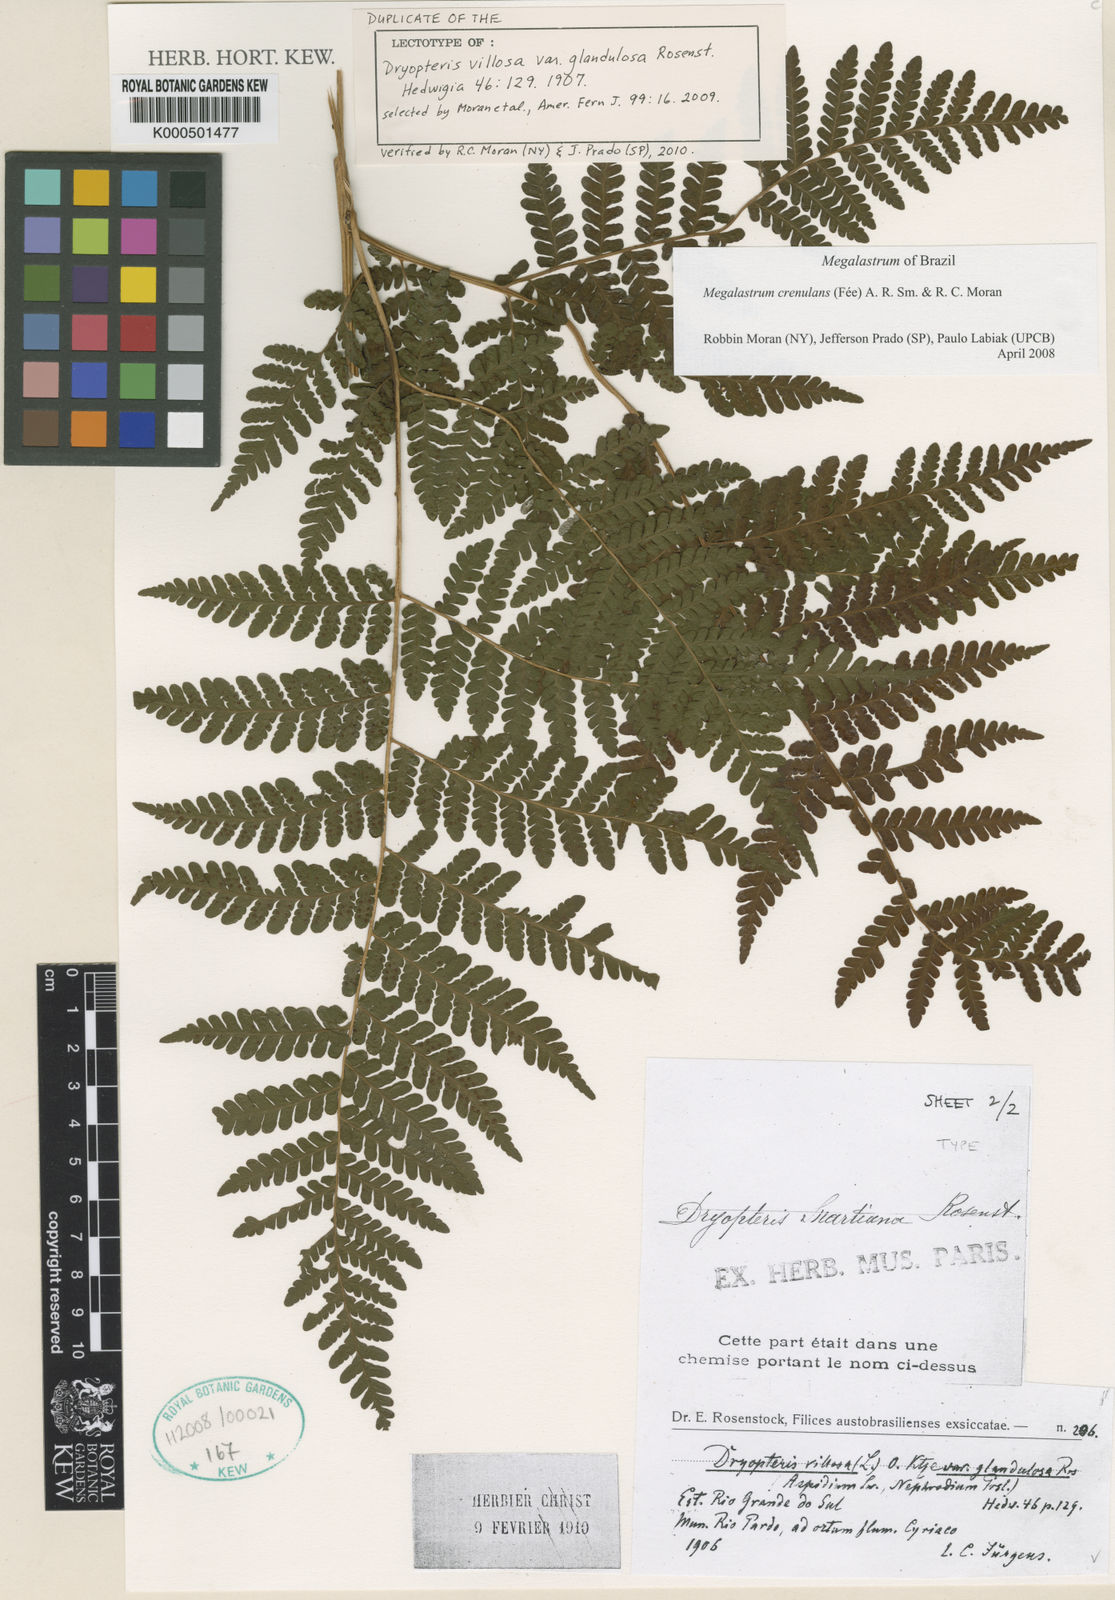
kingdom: Plantae
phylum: Tracheophyta
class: Polypodiopsida
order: Polypodiales
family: Dryopteridaceae
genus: Megalastrum
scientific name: Megalastrum
